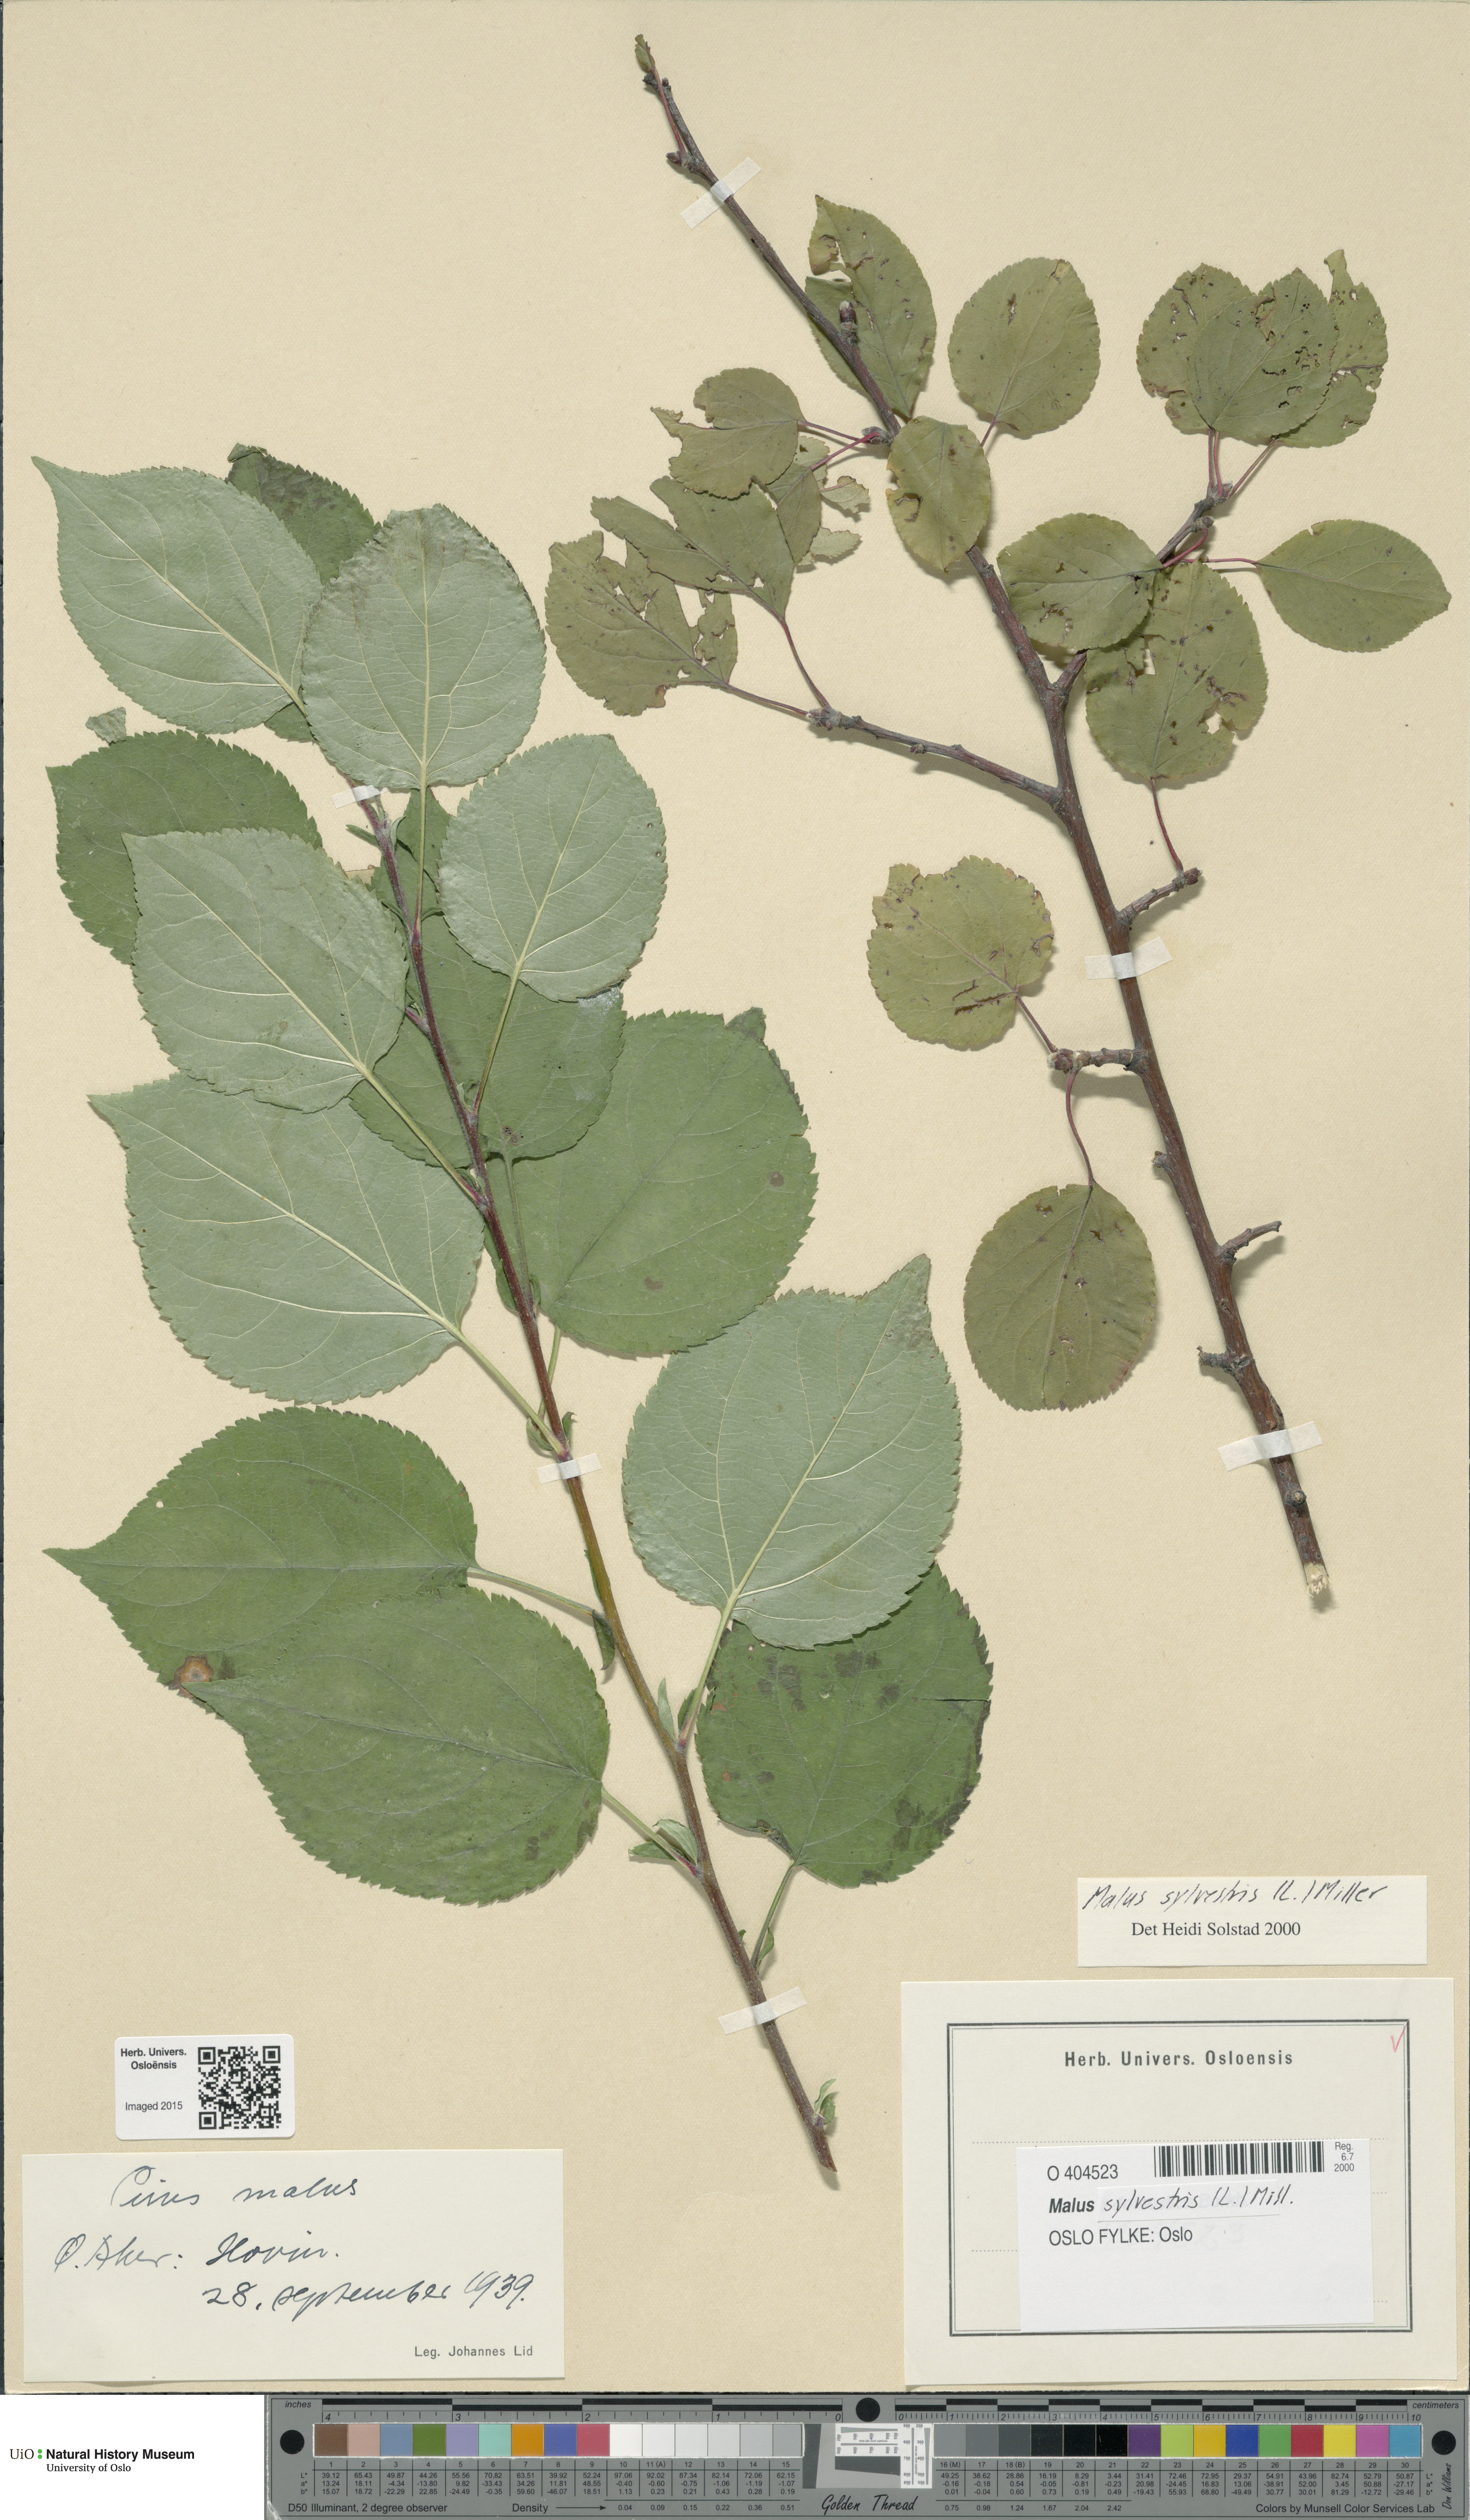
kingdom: Plantae
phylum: Tracheophyta
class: Magnoliopsida
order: Rosales
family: Rosaceae
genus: Malus
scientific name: Malus sylvestris
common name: Crab apple
